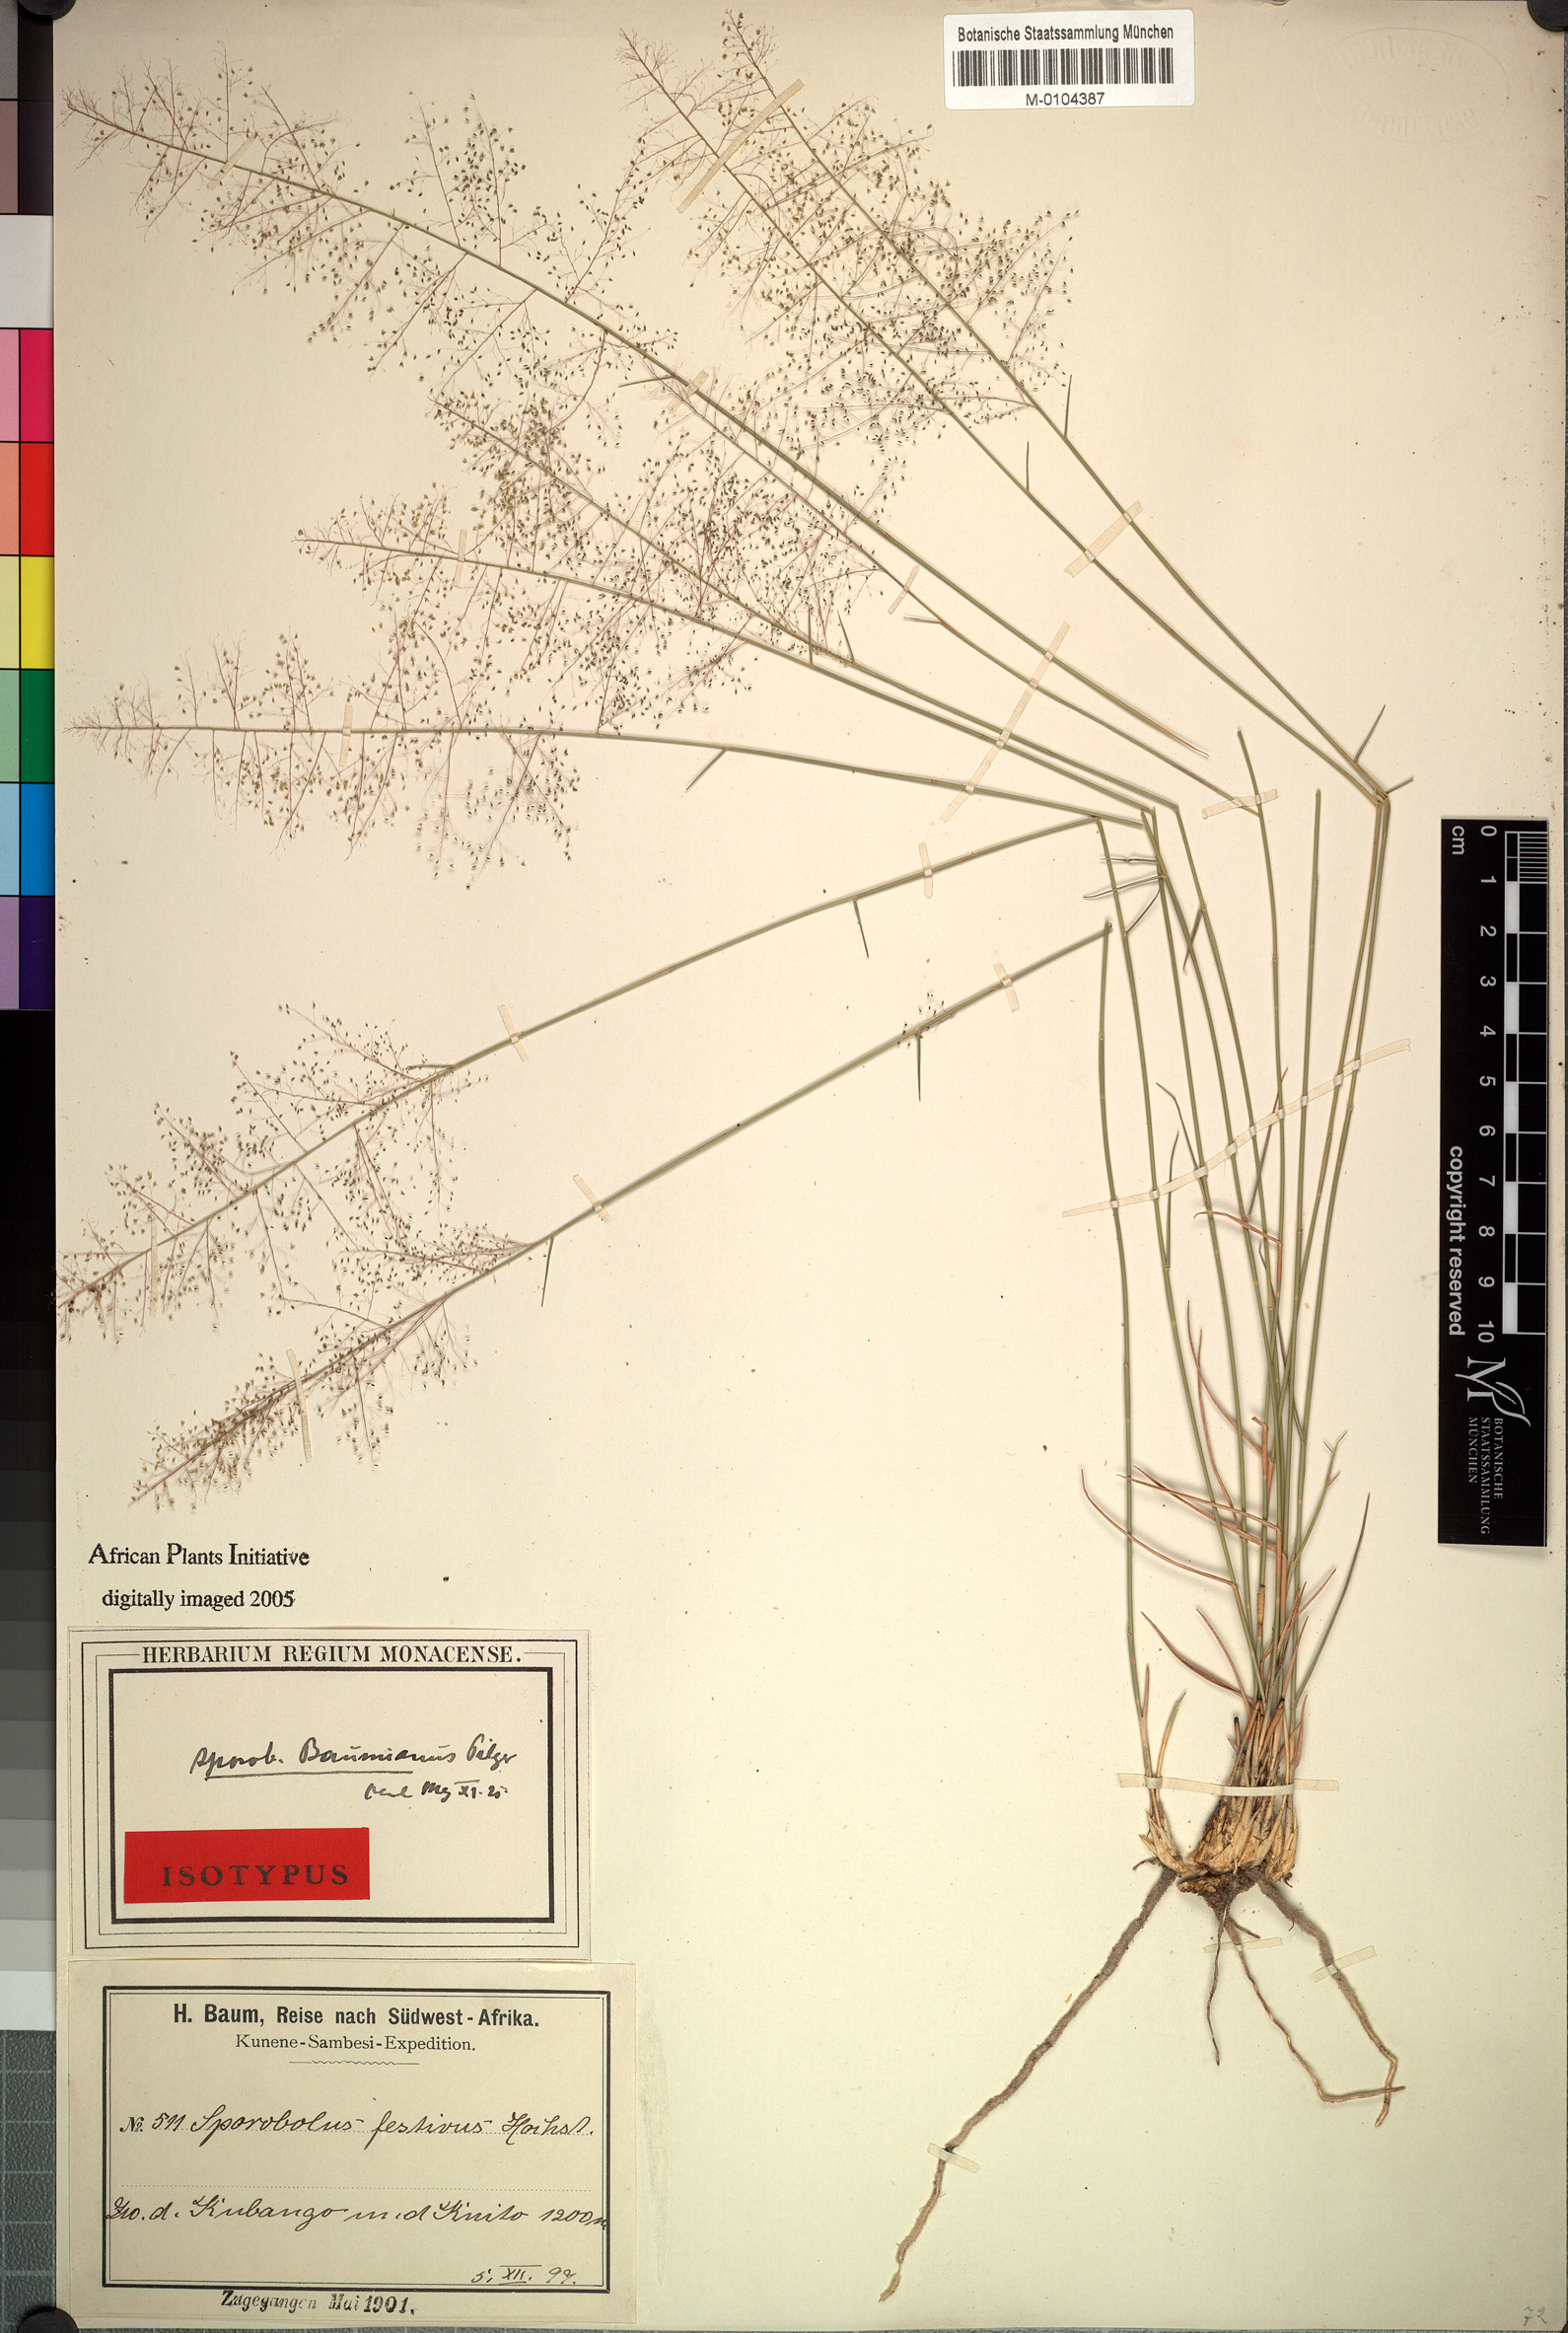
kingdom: Plantae
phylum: Tracheophyta
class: Liliopsida
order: Poales
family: Poaceae
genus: Sporobolus
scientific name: Sporobolus welwitschii
